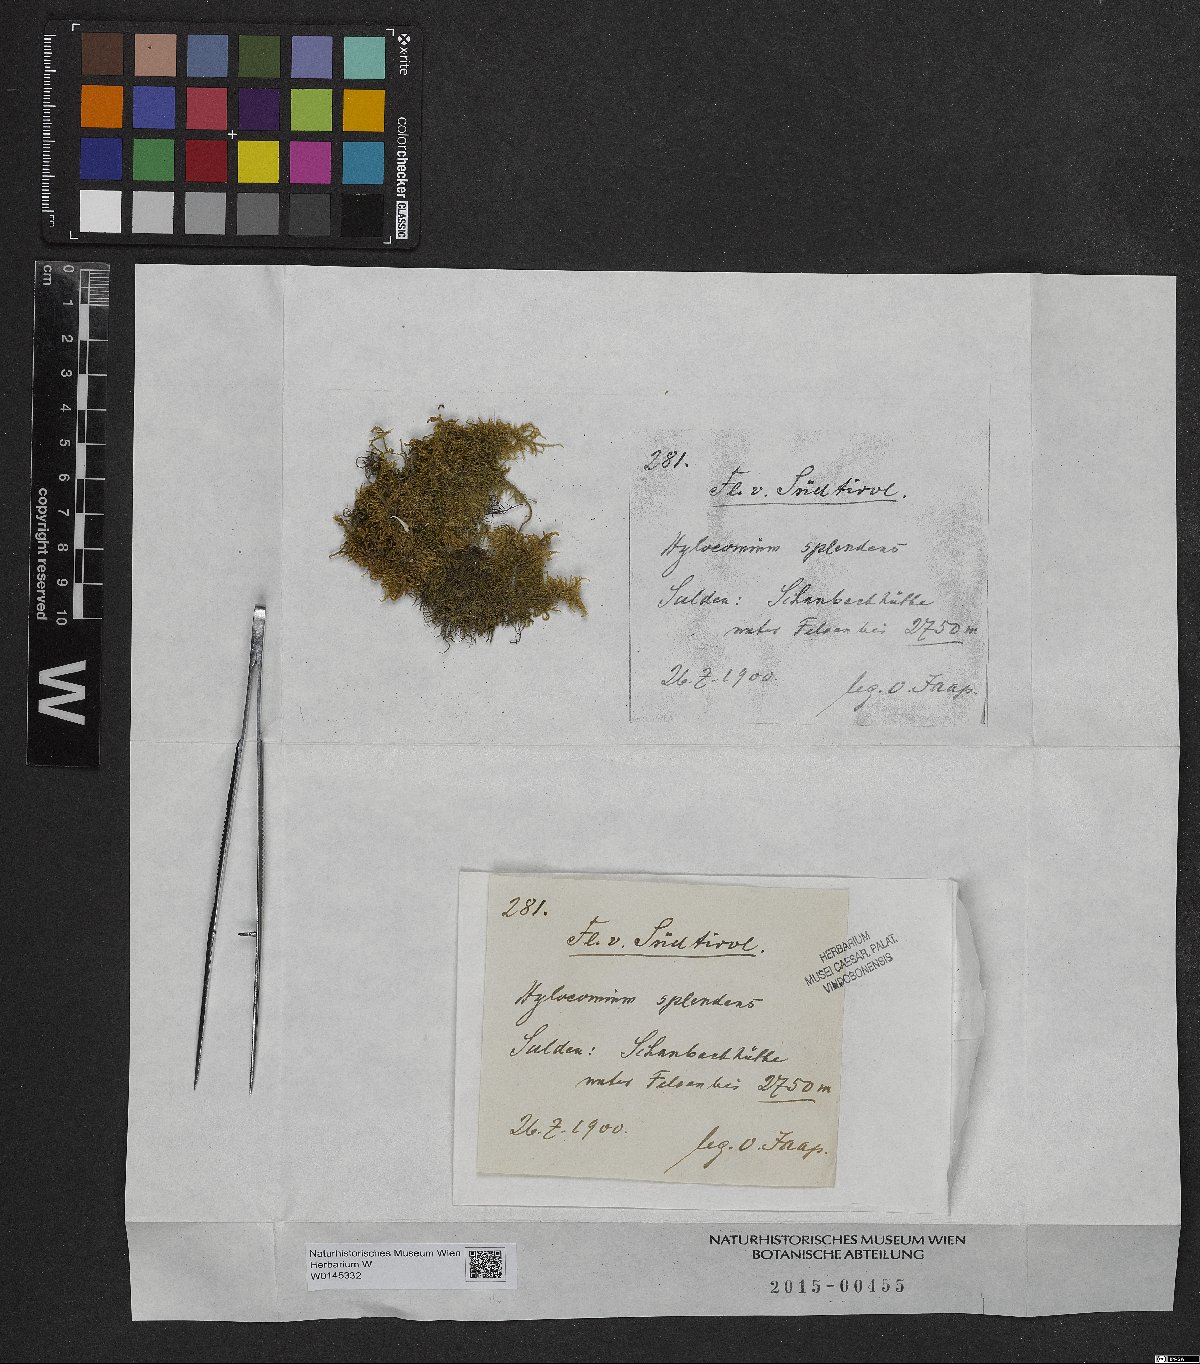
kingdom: Plantae
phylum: Bryophyta
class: Bryopsida
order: Hypnales
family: Hylocomiaceae
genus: Hylocomium
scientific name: Hylocomium splendens
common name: Stairstep moss
